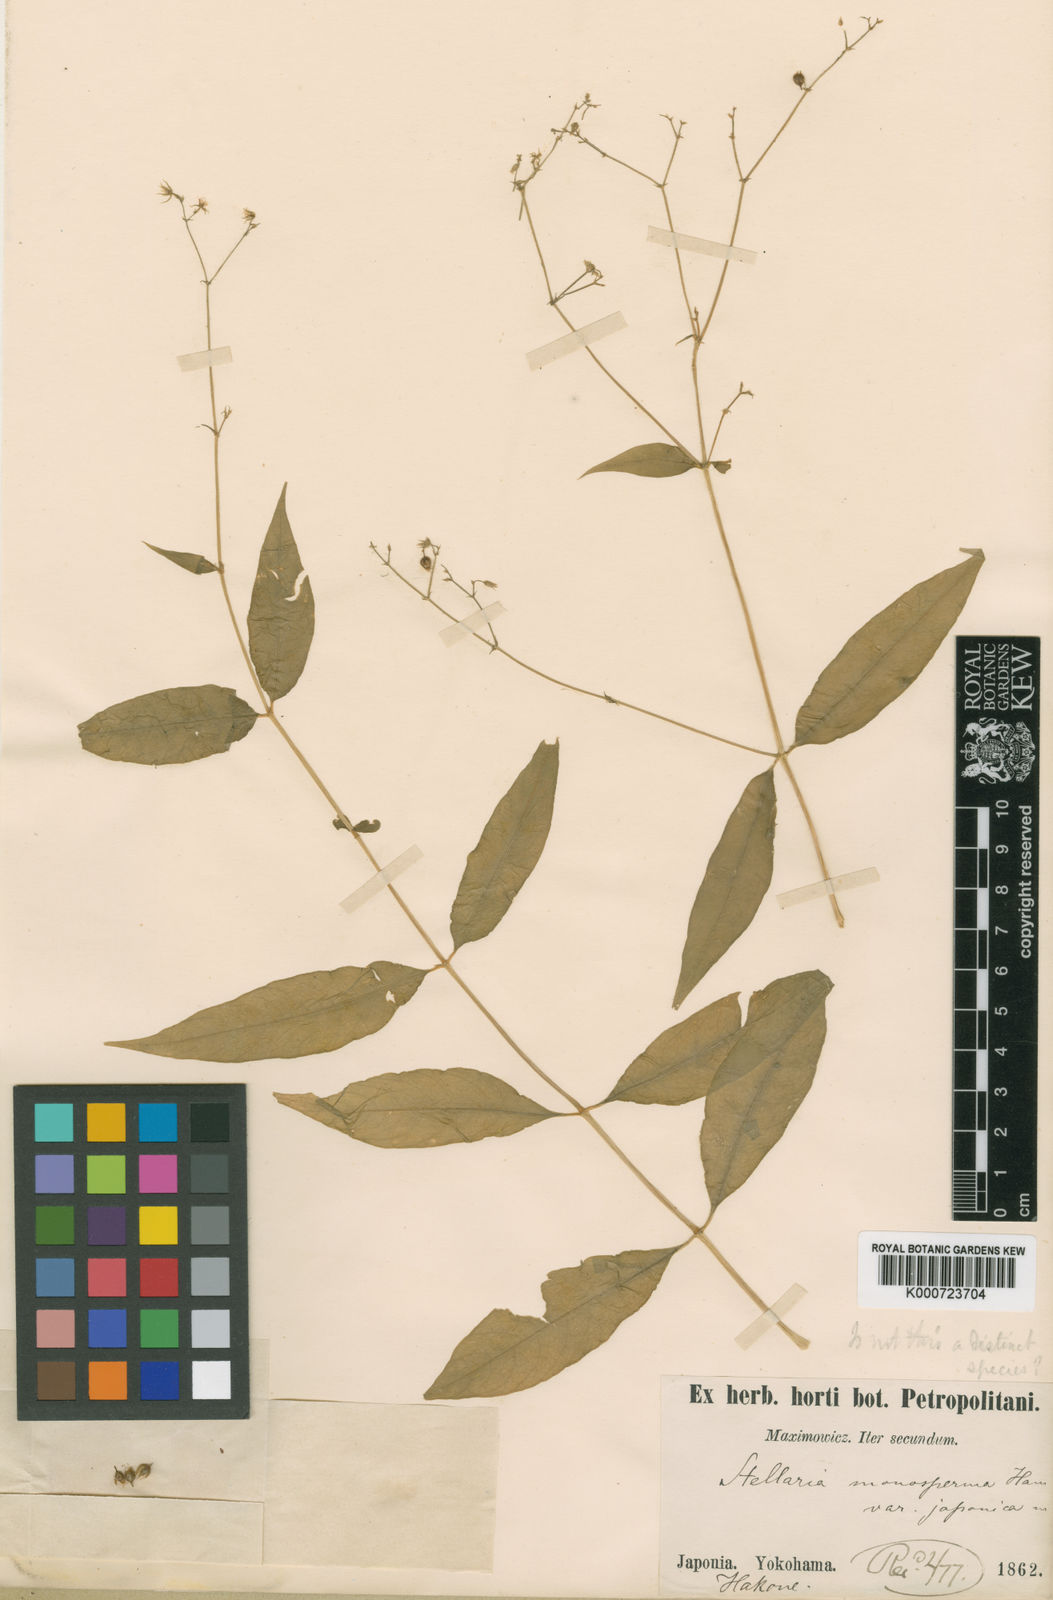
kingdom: Plantae
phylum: Tracheophyta
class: Magnoliopsida
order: Caryophyllales
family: Caryophyllaceae
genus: Schizotechium
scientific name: Schizotechium monospermum
